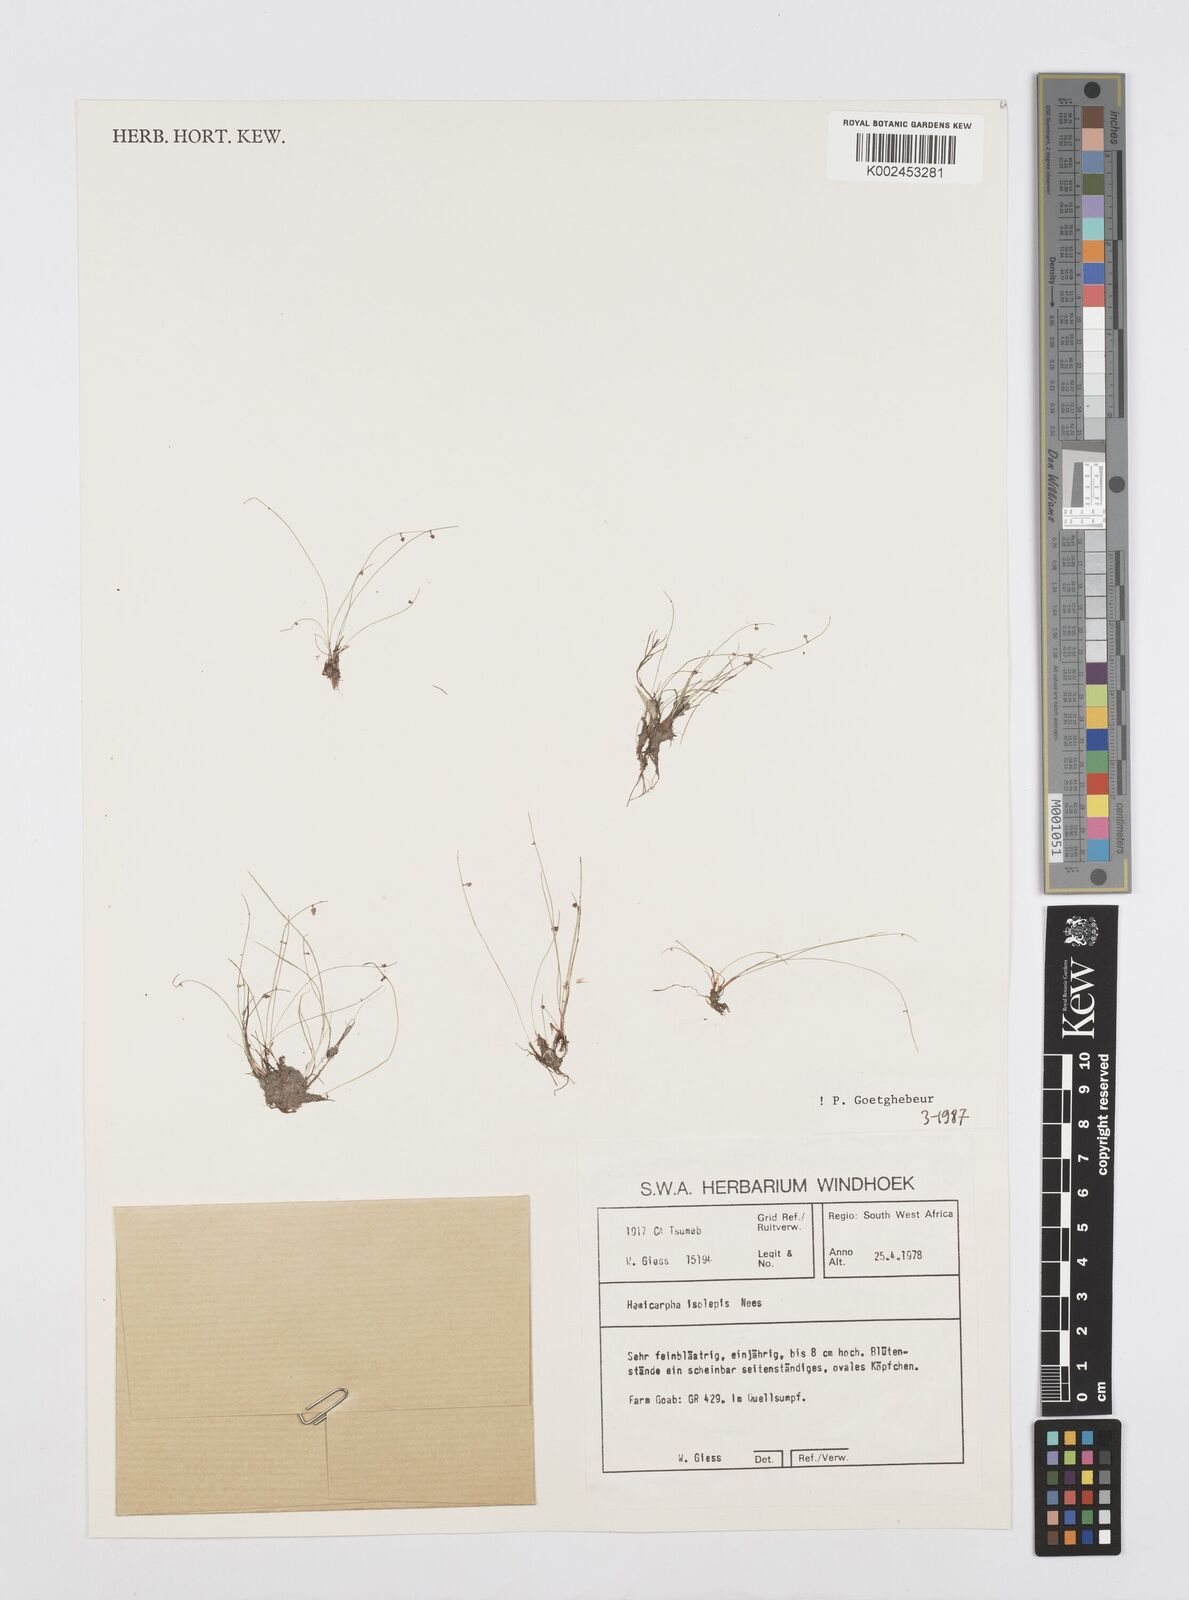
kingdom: Plantae
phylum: Tracheophyta
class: Liliopsida
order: Poales
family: Cyperaceae
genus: Cyperus
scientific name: Cyperus hemisphaericus
